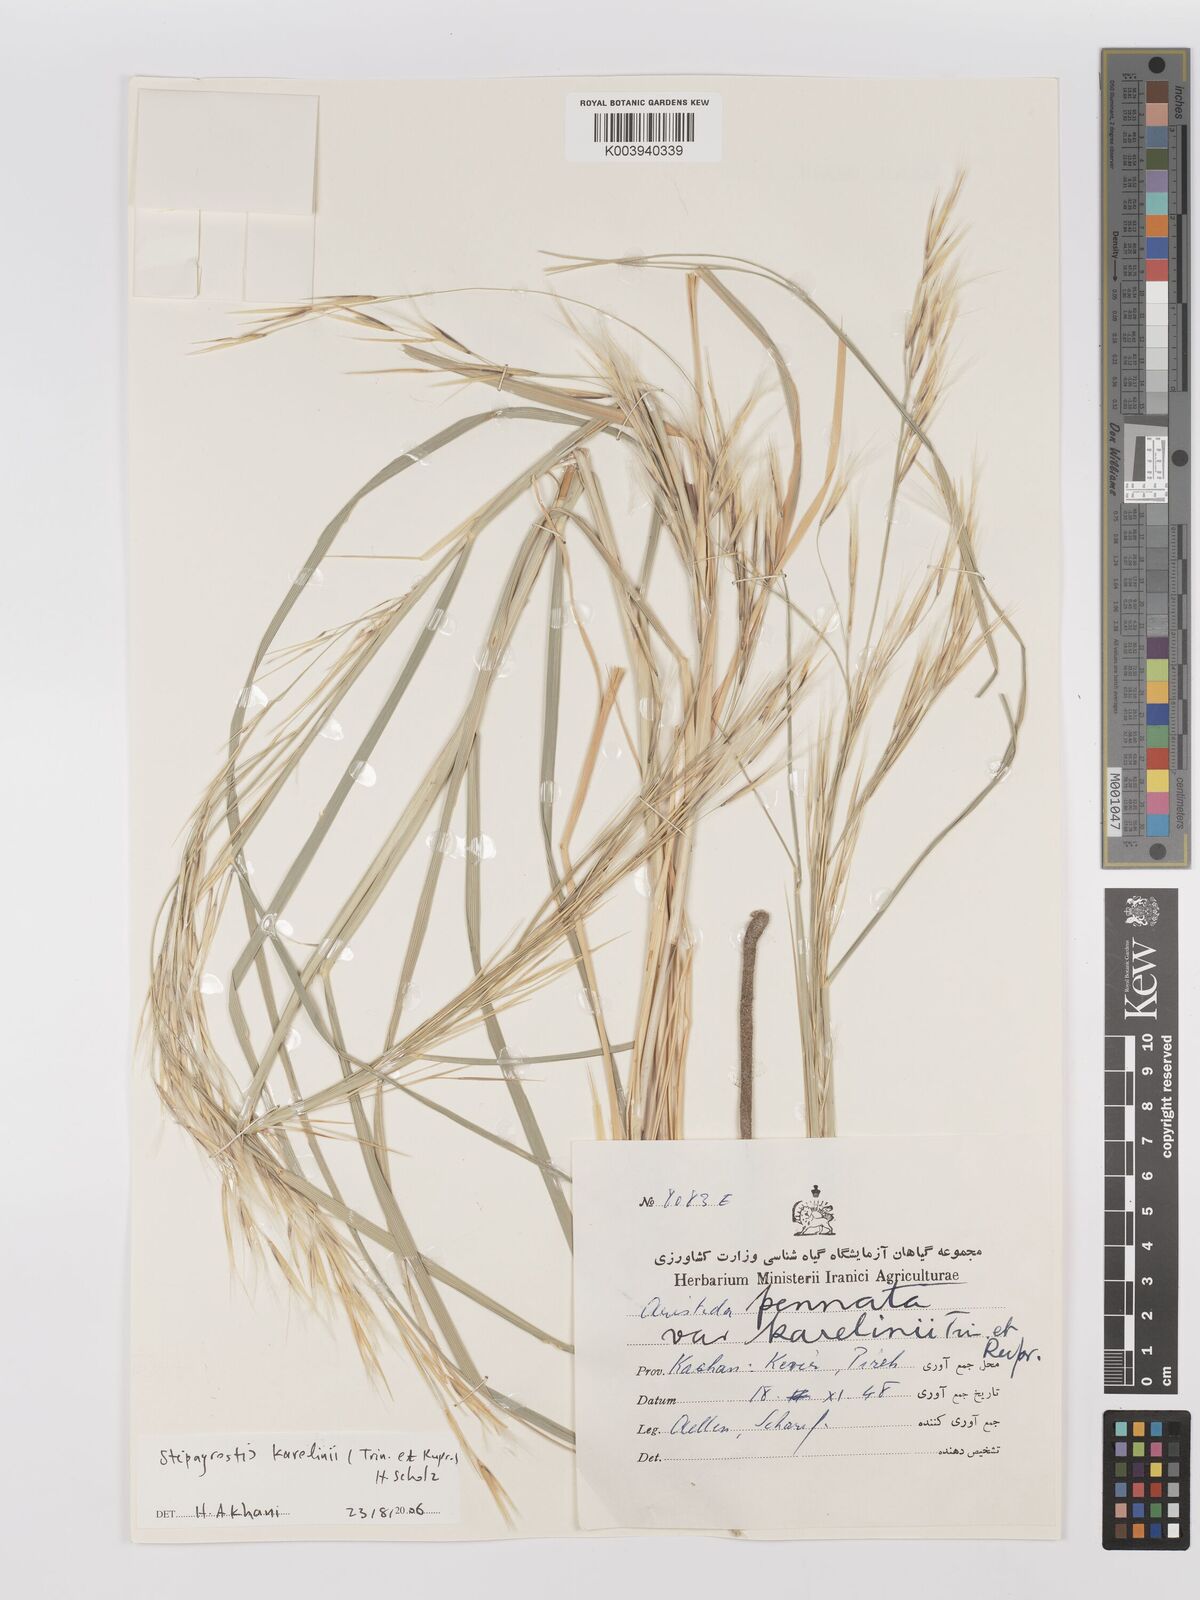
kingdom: Plantae
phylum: Tracheophyta
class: Liliopsida
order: Poales
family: Poaceae
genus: Stipagrostis
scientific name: Stipagrostis karelinii
